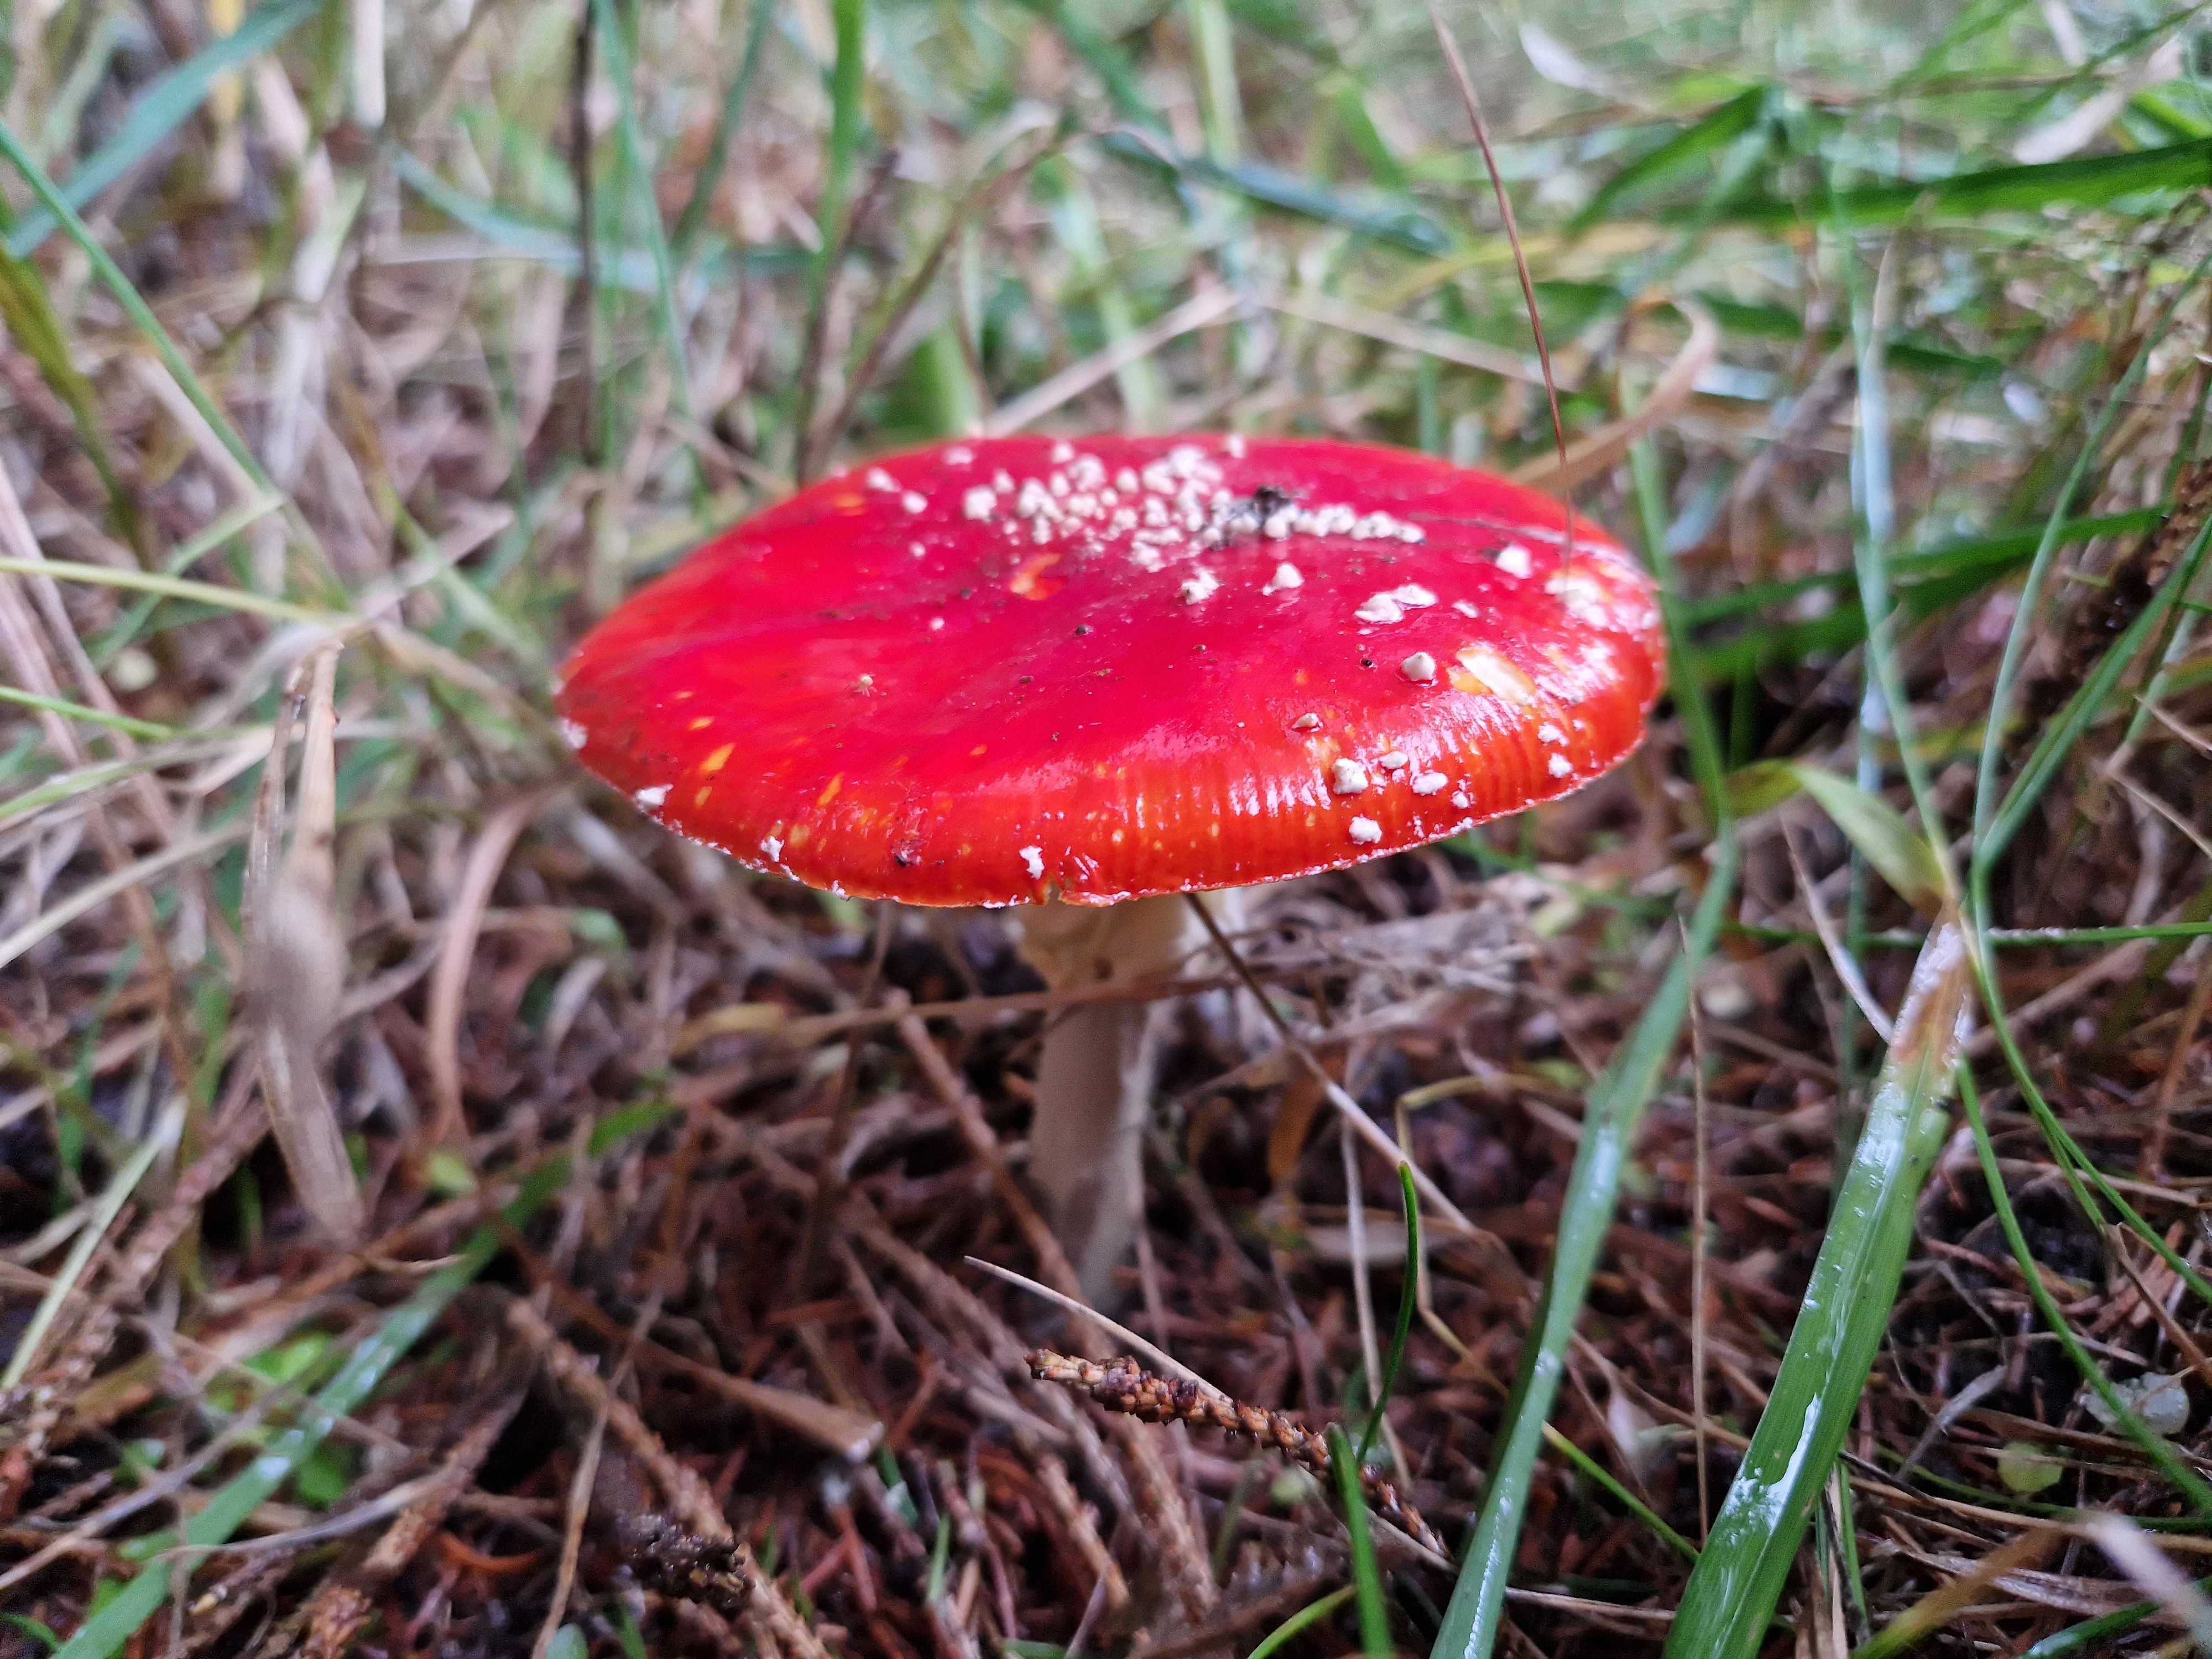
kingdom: Fungi
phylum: Basidiomycota
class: Agaricomycetes
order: Agaricales
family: Amanitaceae
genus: Amanita
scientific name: Amanita muscaria
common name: rød fluesvamp
